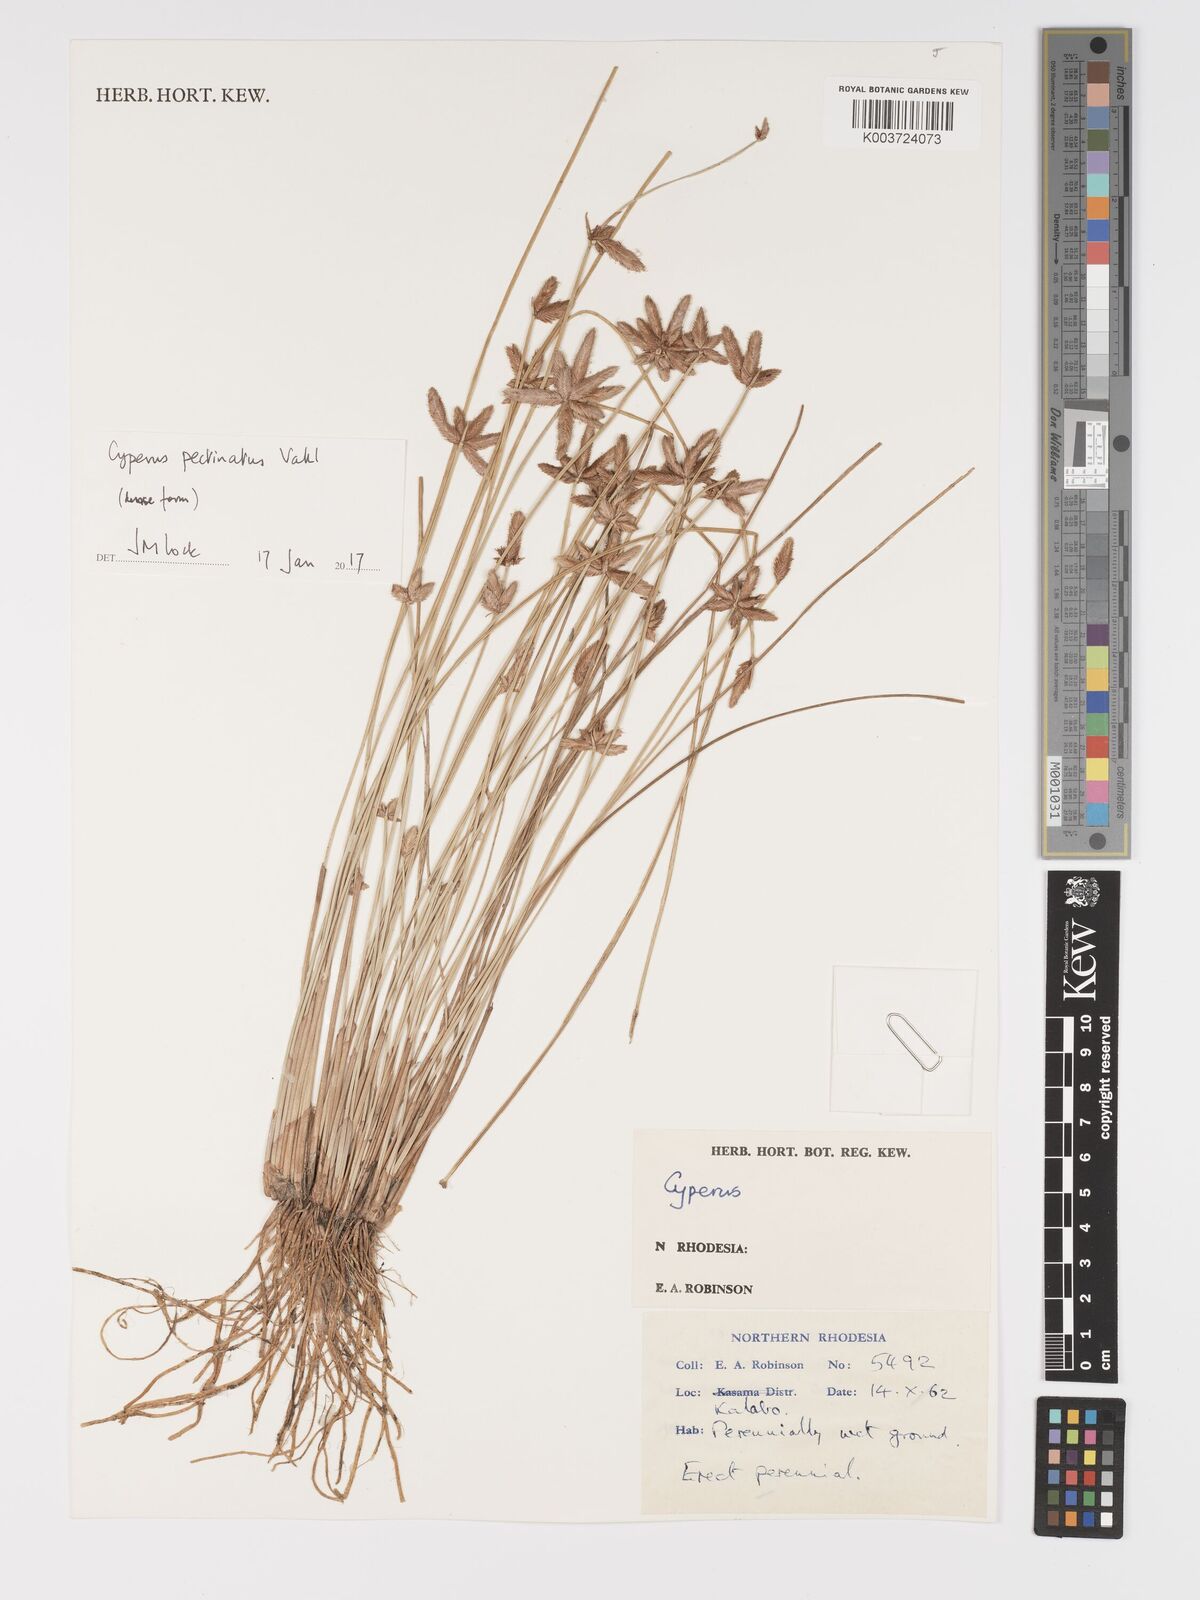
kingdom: Plantae
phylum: Tracheophyta
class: Liliopsida
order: Poales
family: Cyperaceae
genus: Cyperus
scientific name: Cyperus compressus
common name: Poorland flatsedge
